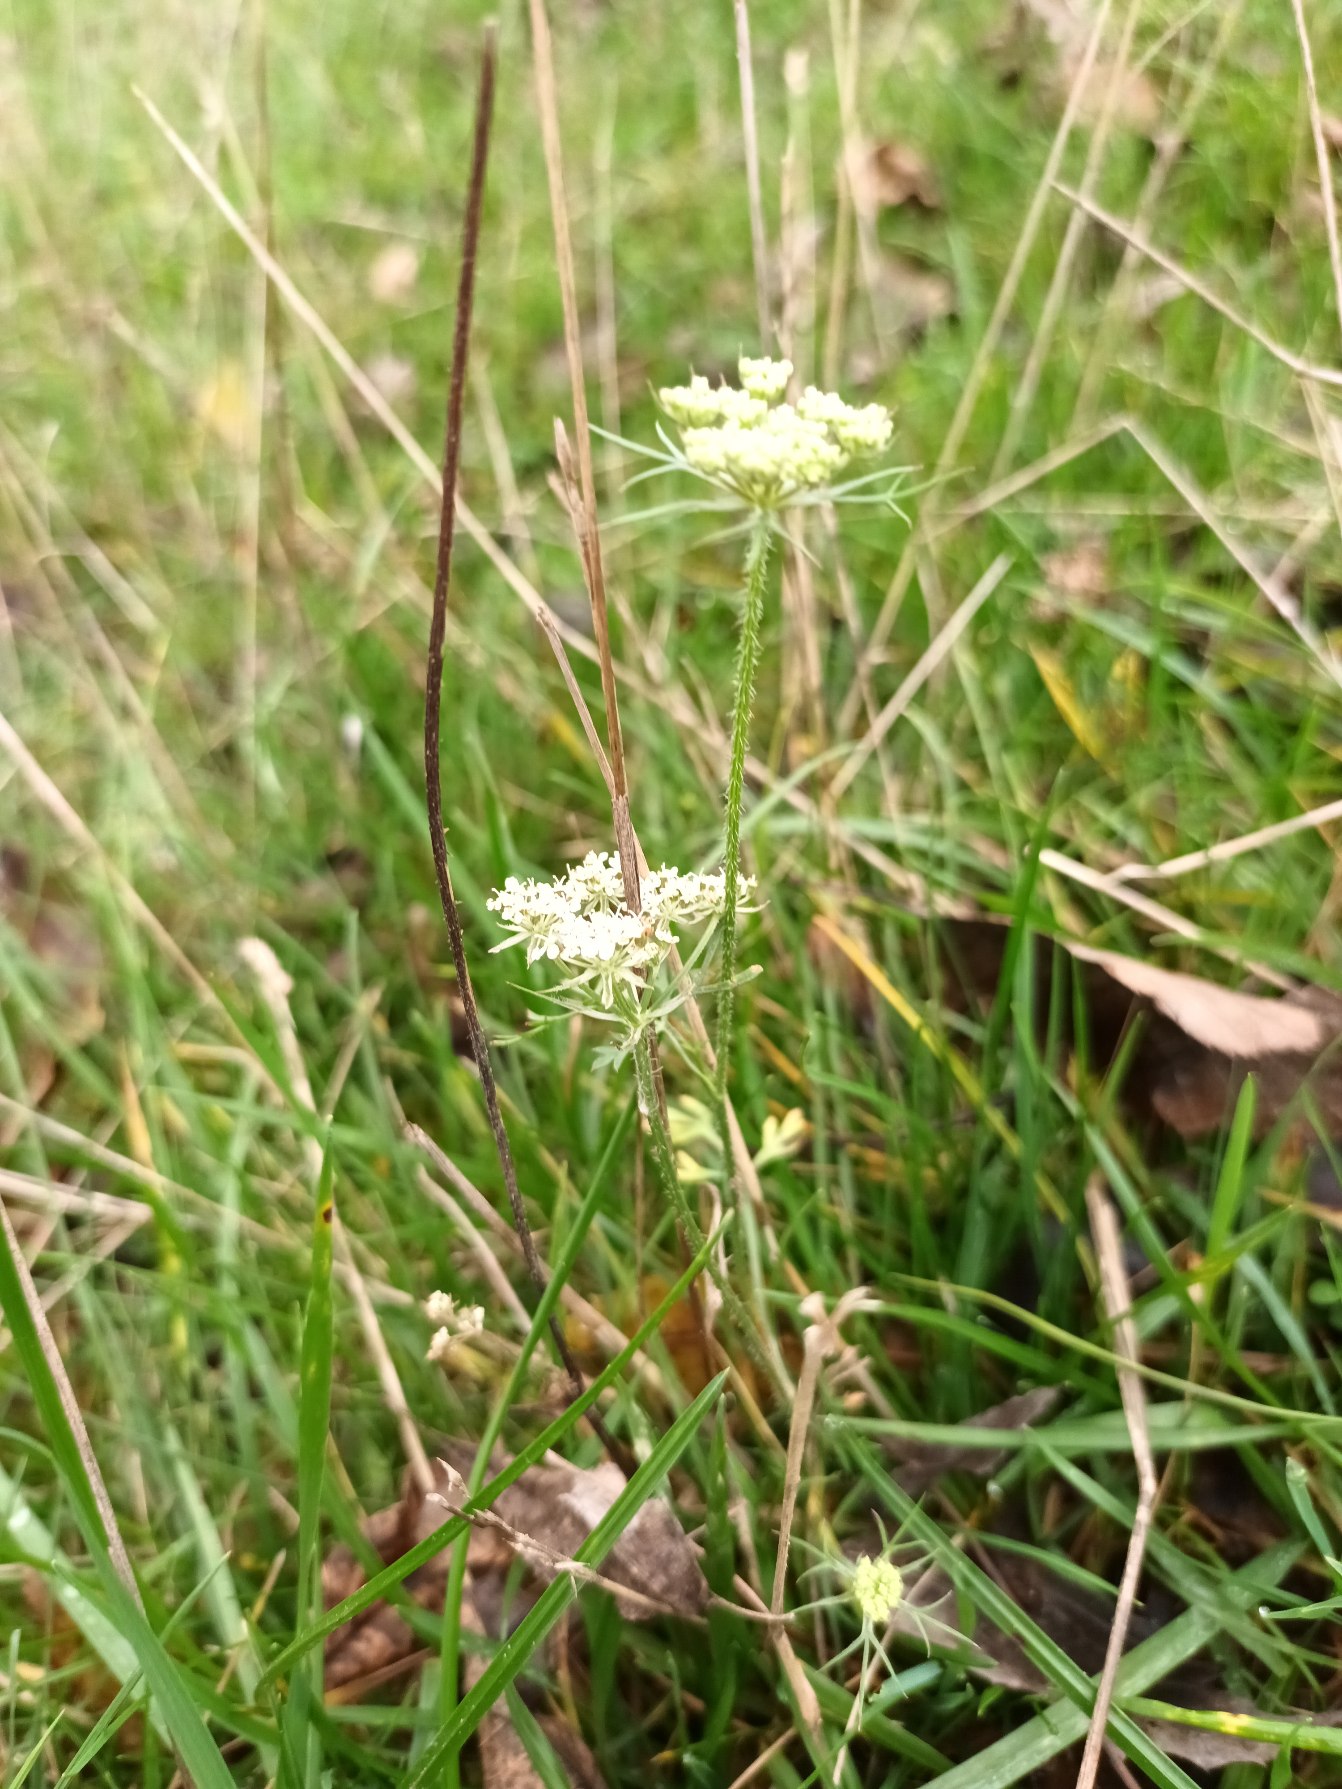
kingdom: Plantae
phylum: Tracheophyta
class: Magnoliopsida
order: Apiales
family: Apiaceae
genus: Daucus
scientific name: Daucus carota
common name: Gulerod
